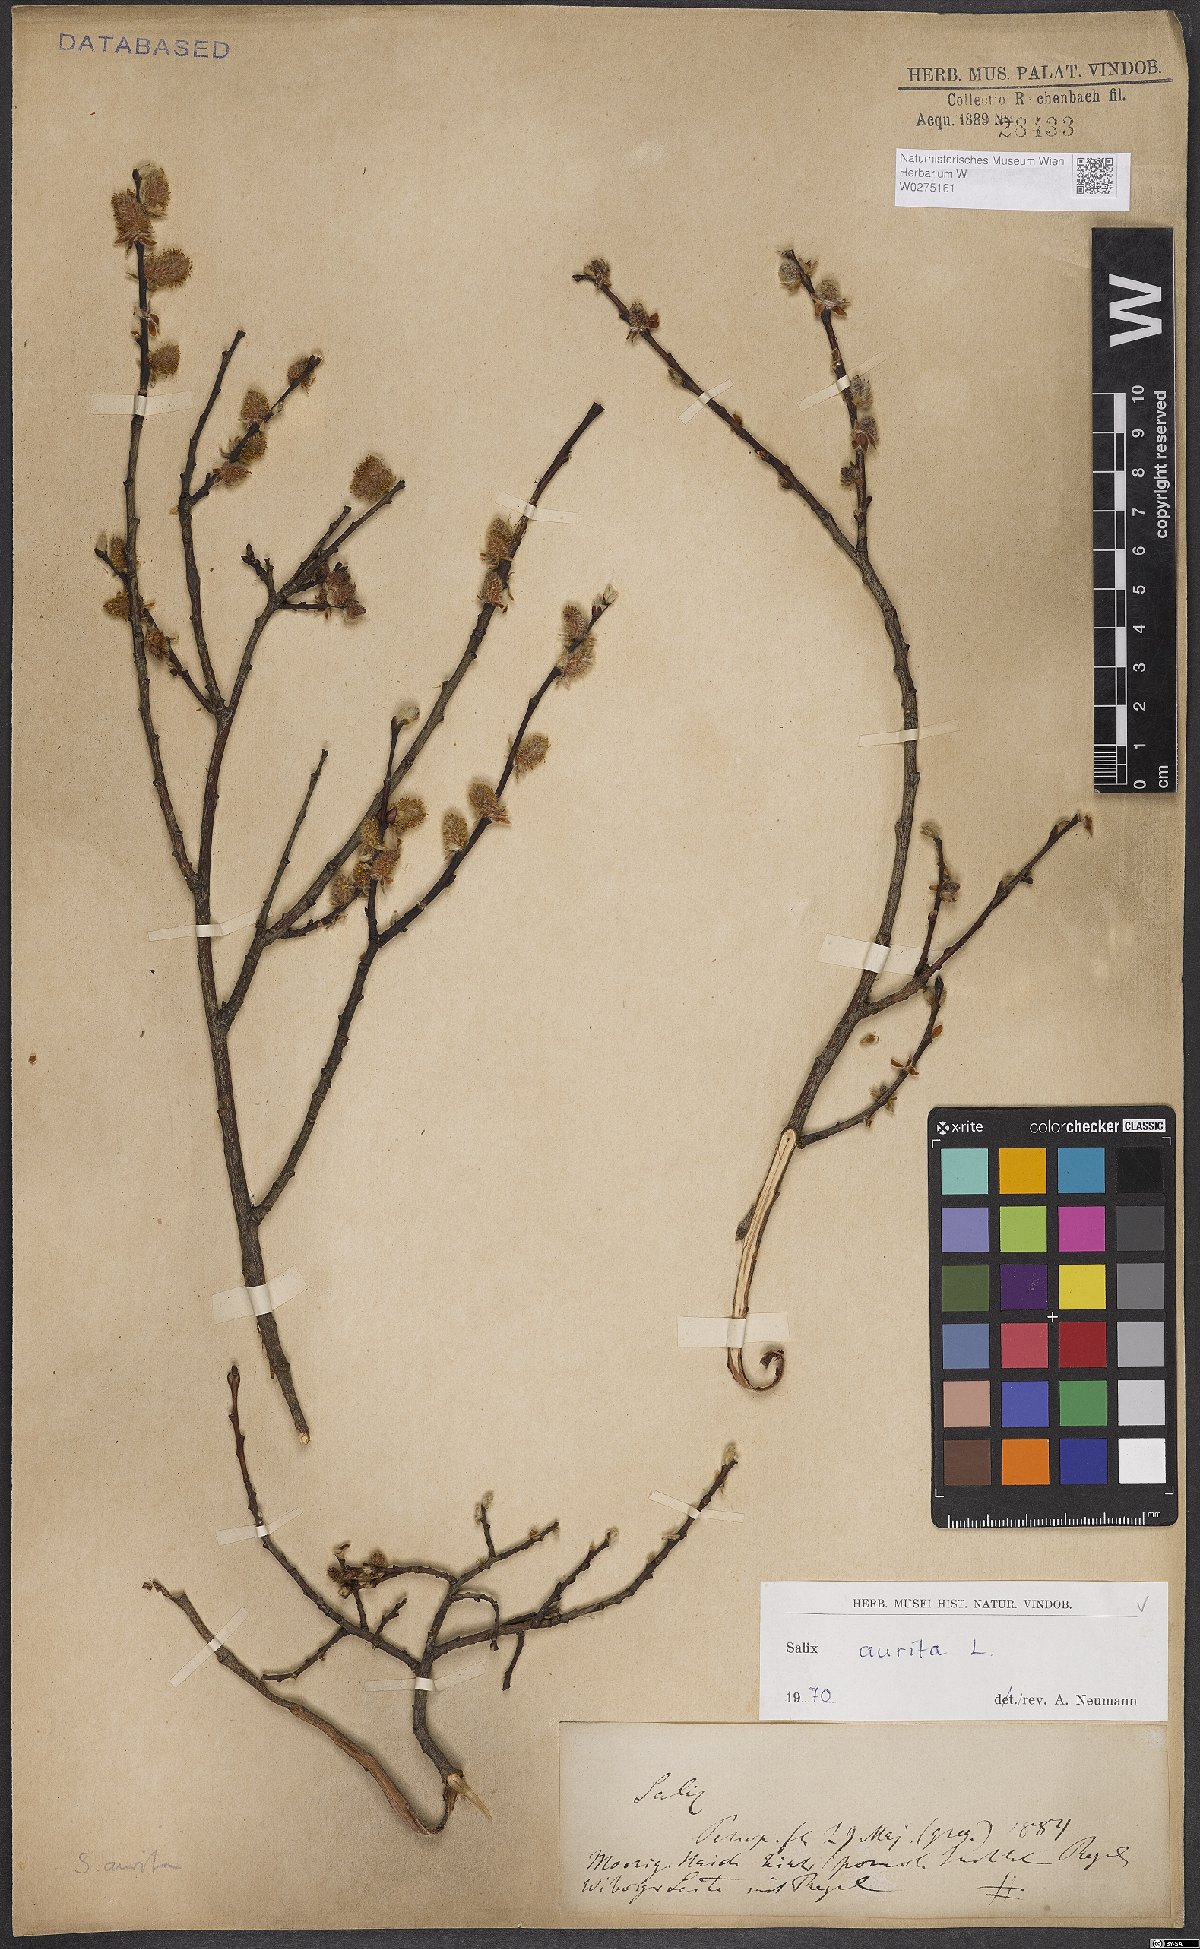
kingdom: Plantae
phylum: Tracheophyta
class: Magnoliopsida
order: Malpighiales
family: Salicaceae
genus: Salix
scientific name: Salix aurita
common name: Eared willow
